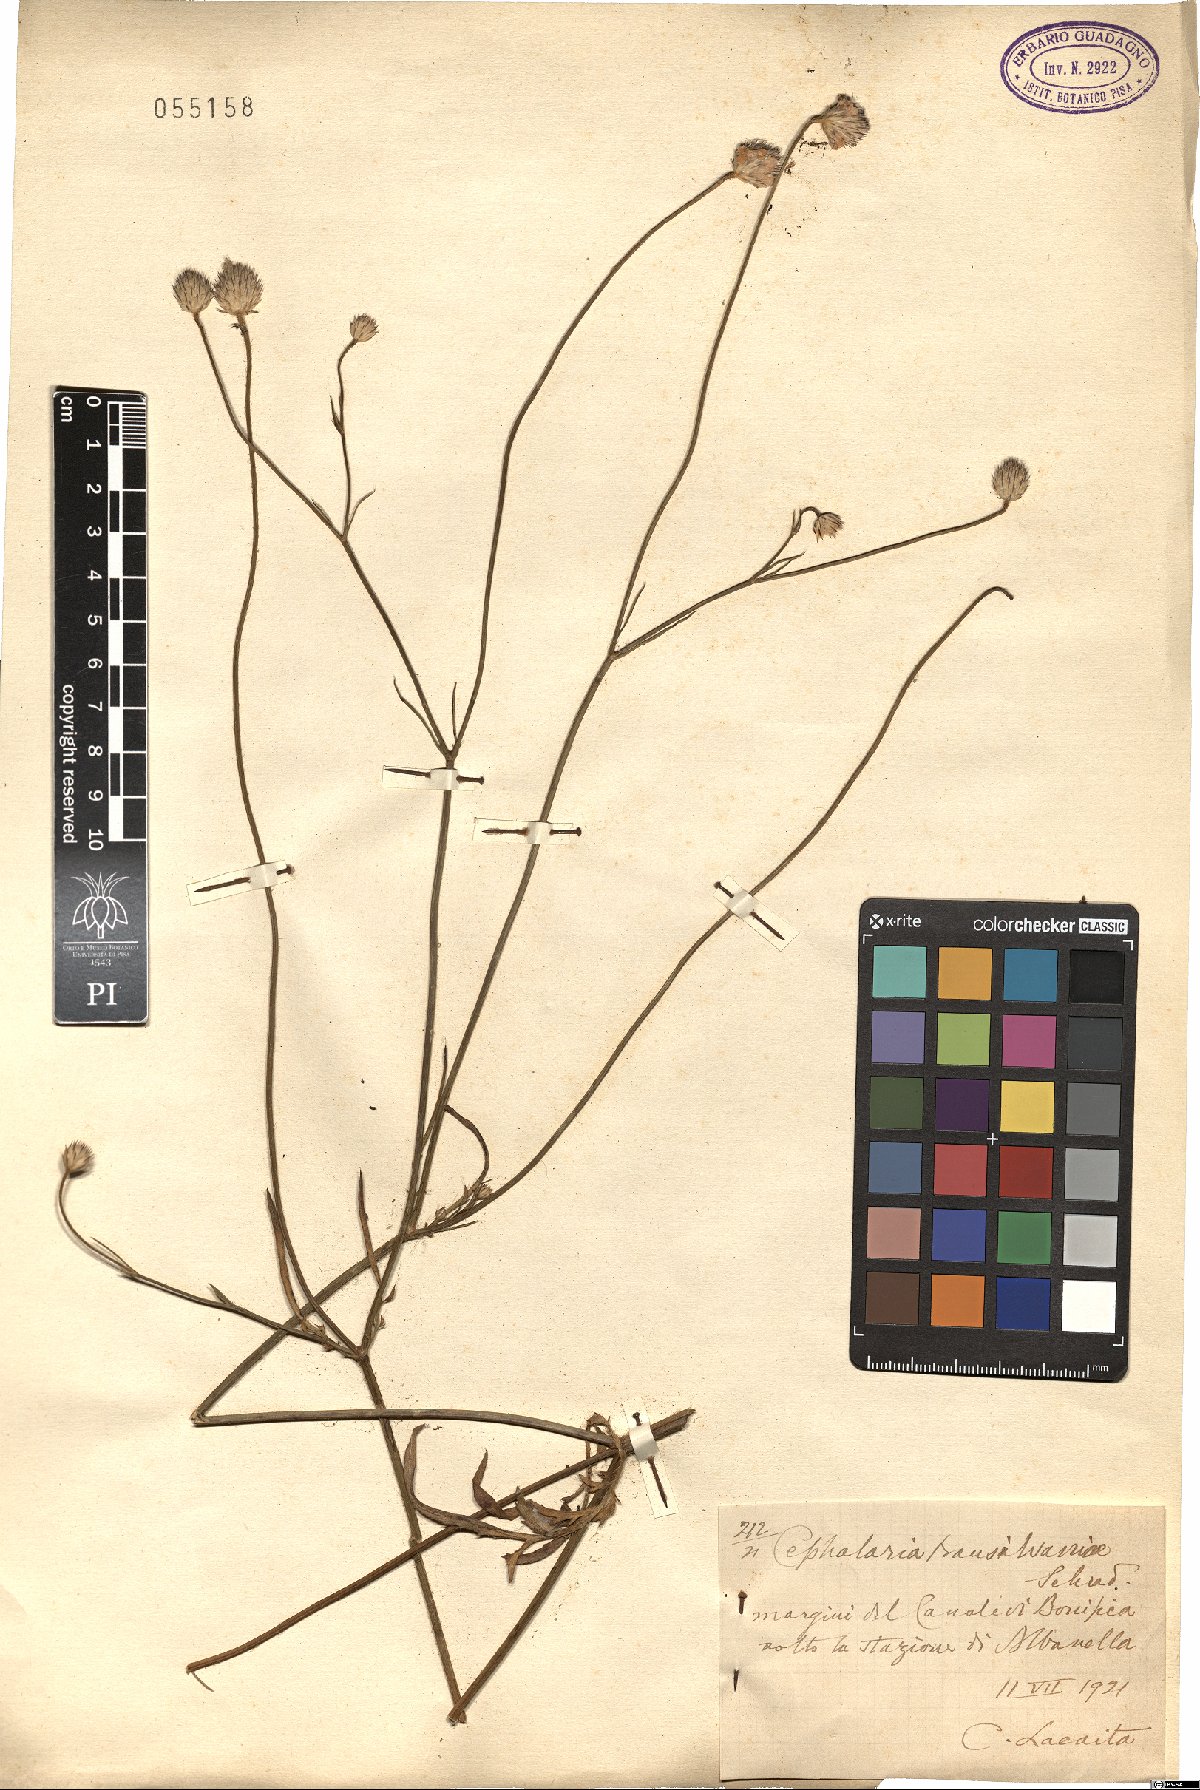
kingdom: Plantae
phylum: Tracheophyta
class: Magnoliopsida
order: Dipsacales
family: Caprifoliaceae
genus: Cephalaria
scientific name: Cephalaria transsylvanica
